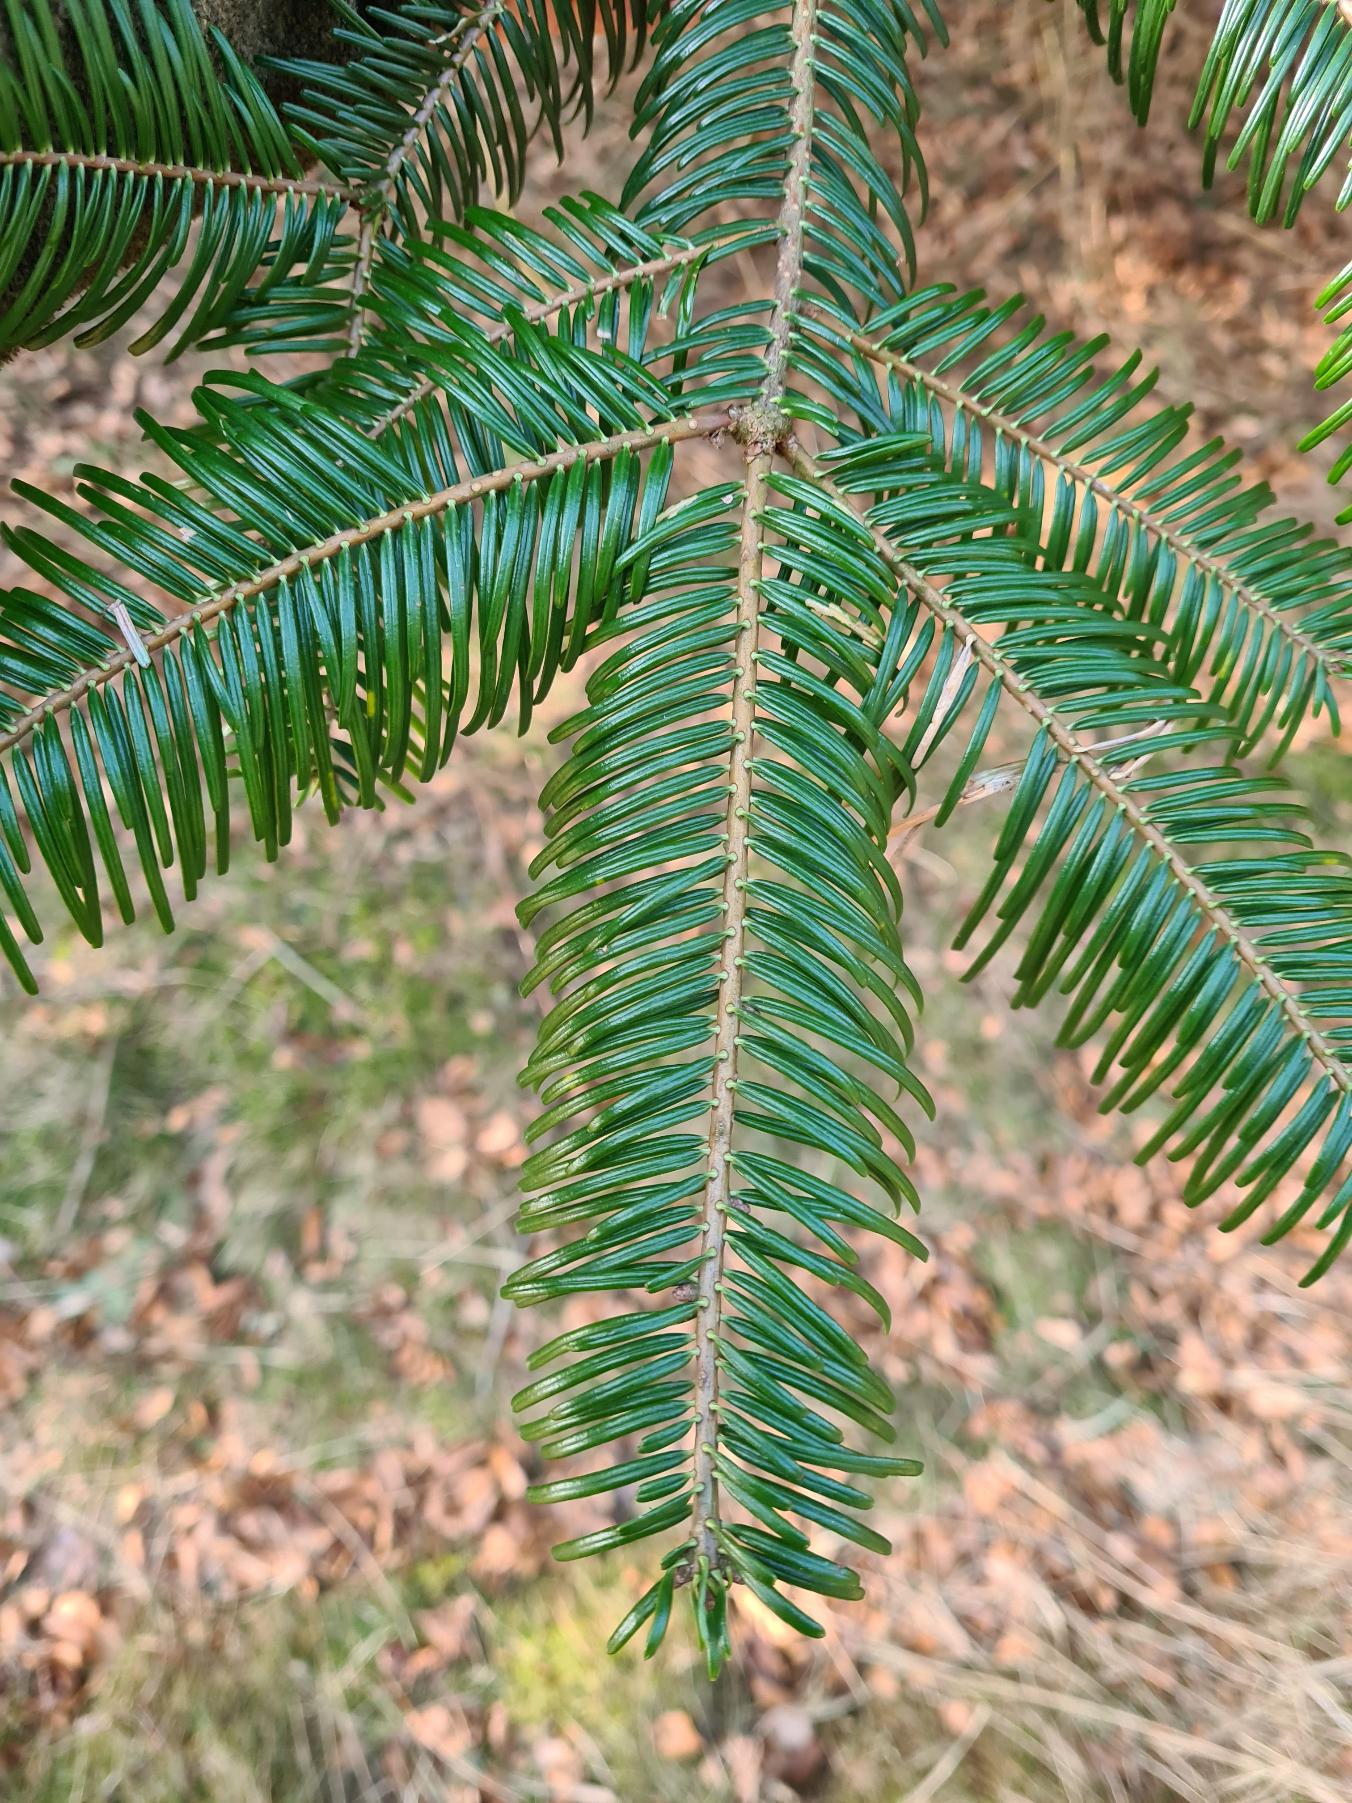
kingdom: Plantae
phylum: Tracheophyta
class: Pinopsida
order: Pinales
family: Pinaceae
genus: Abies
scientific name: Abies grandis
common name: Kæmpegran
